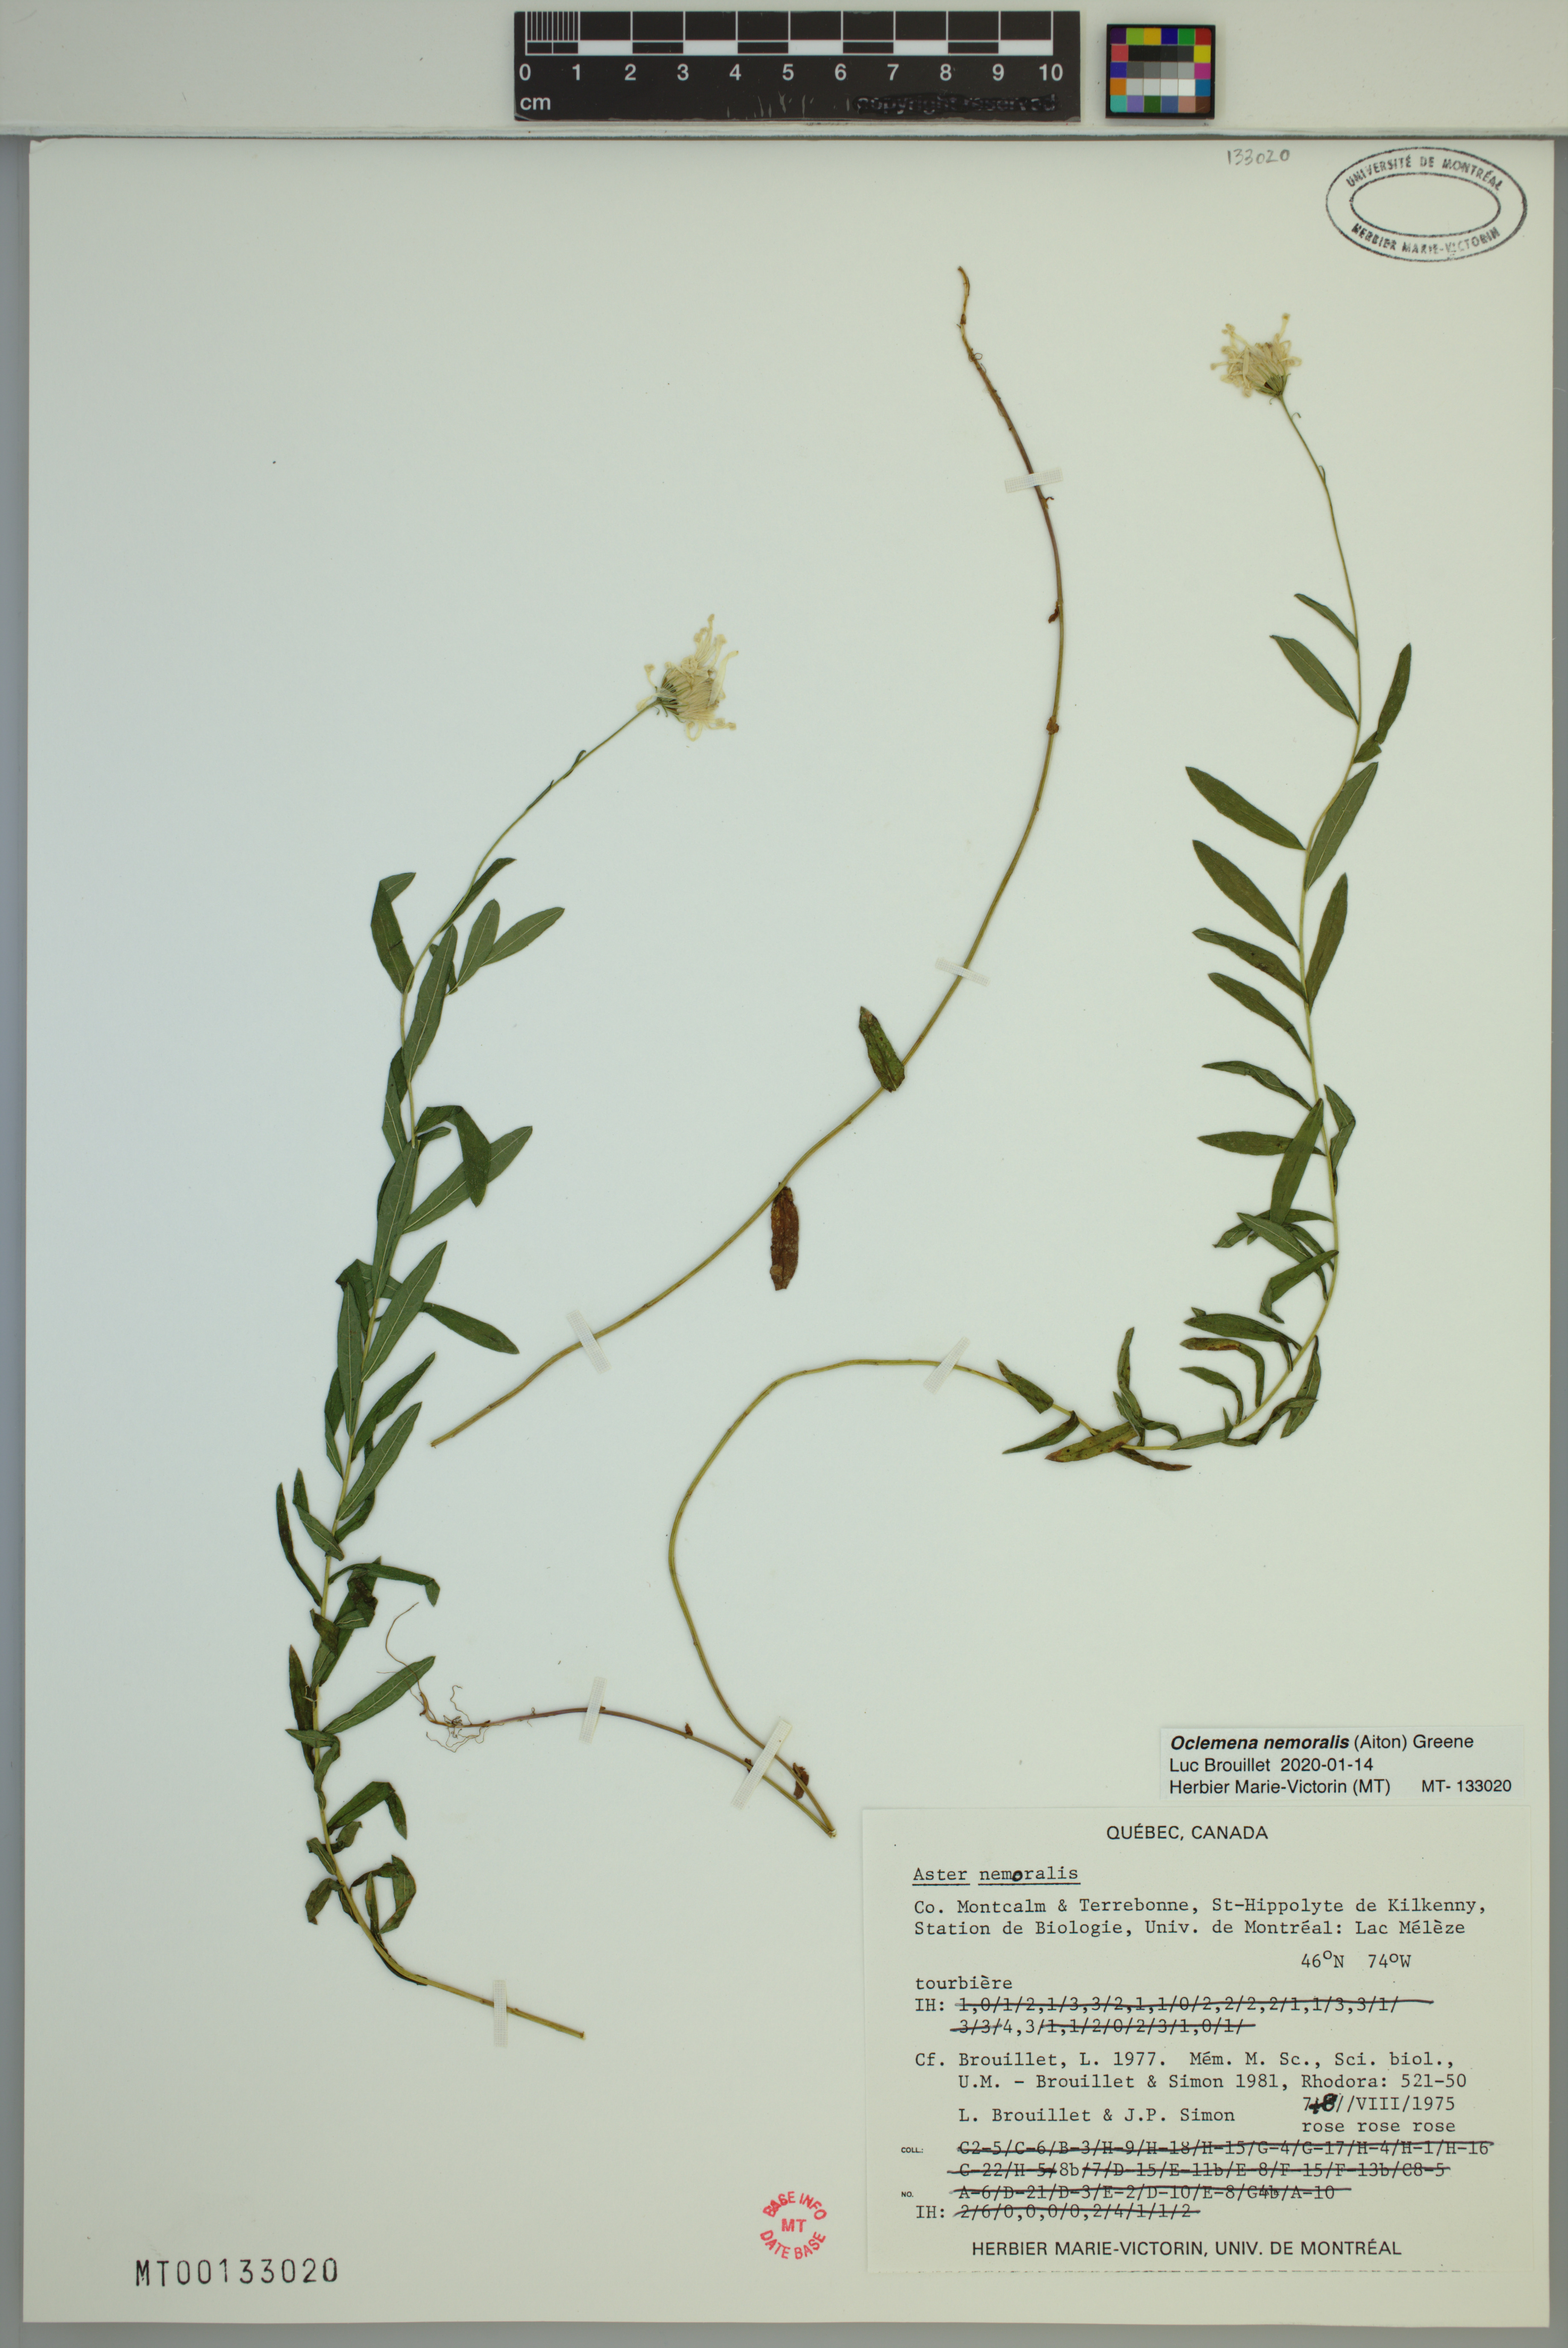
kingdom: Plantae
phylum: Tracheophyta
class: Magnoliopsida
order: Asterales
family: Asteraceae
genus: Oclemena
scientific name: Oclemena nemoralis
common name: Bog aster
